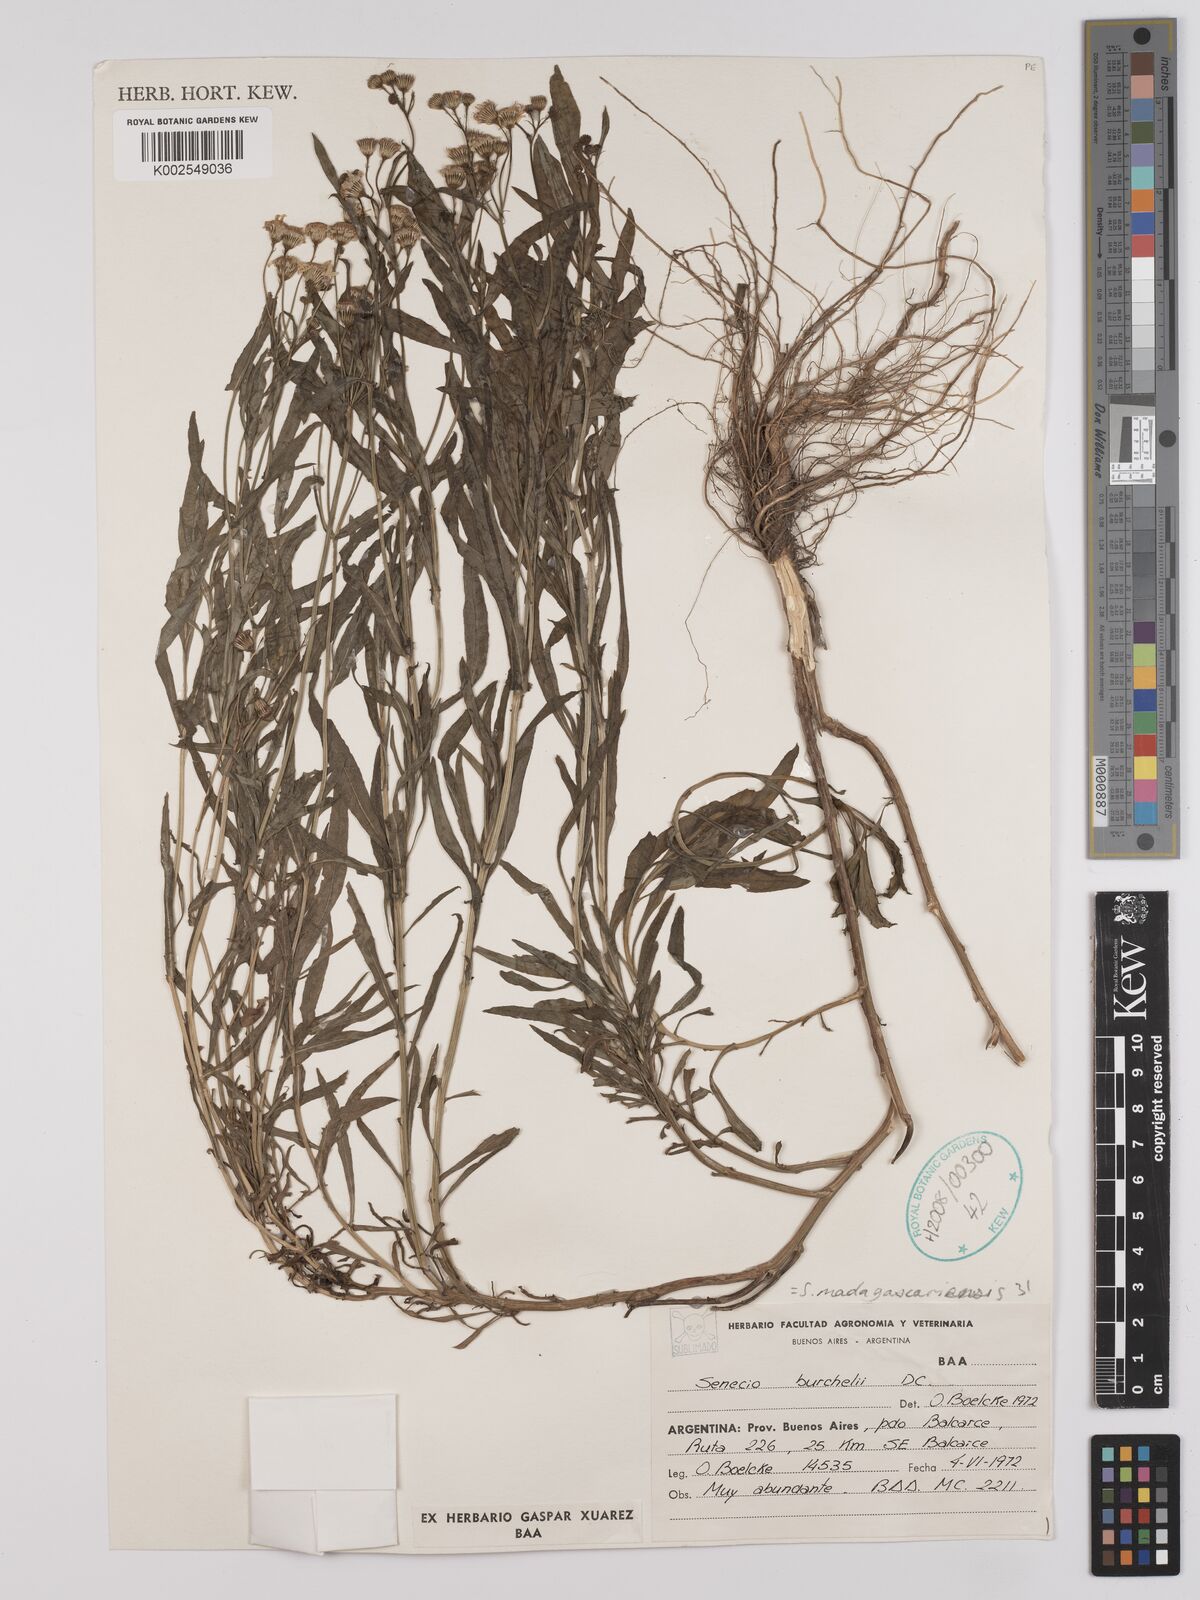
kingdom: Plantae
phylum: Tracheophyta
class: Magnoliopsida
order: Asterales
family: Asteraceae
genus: Senecio
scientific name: Senecio madagascariensis
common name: Madagascar ragwort
